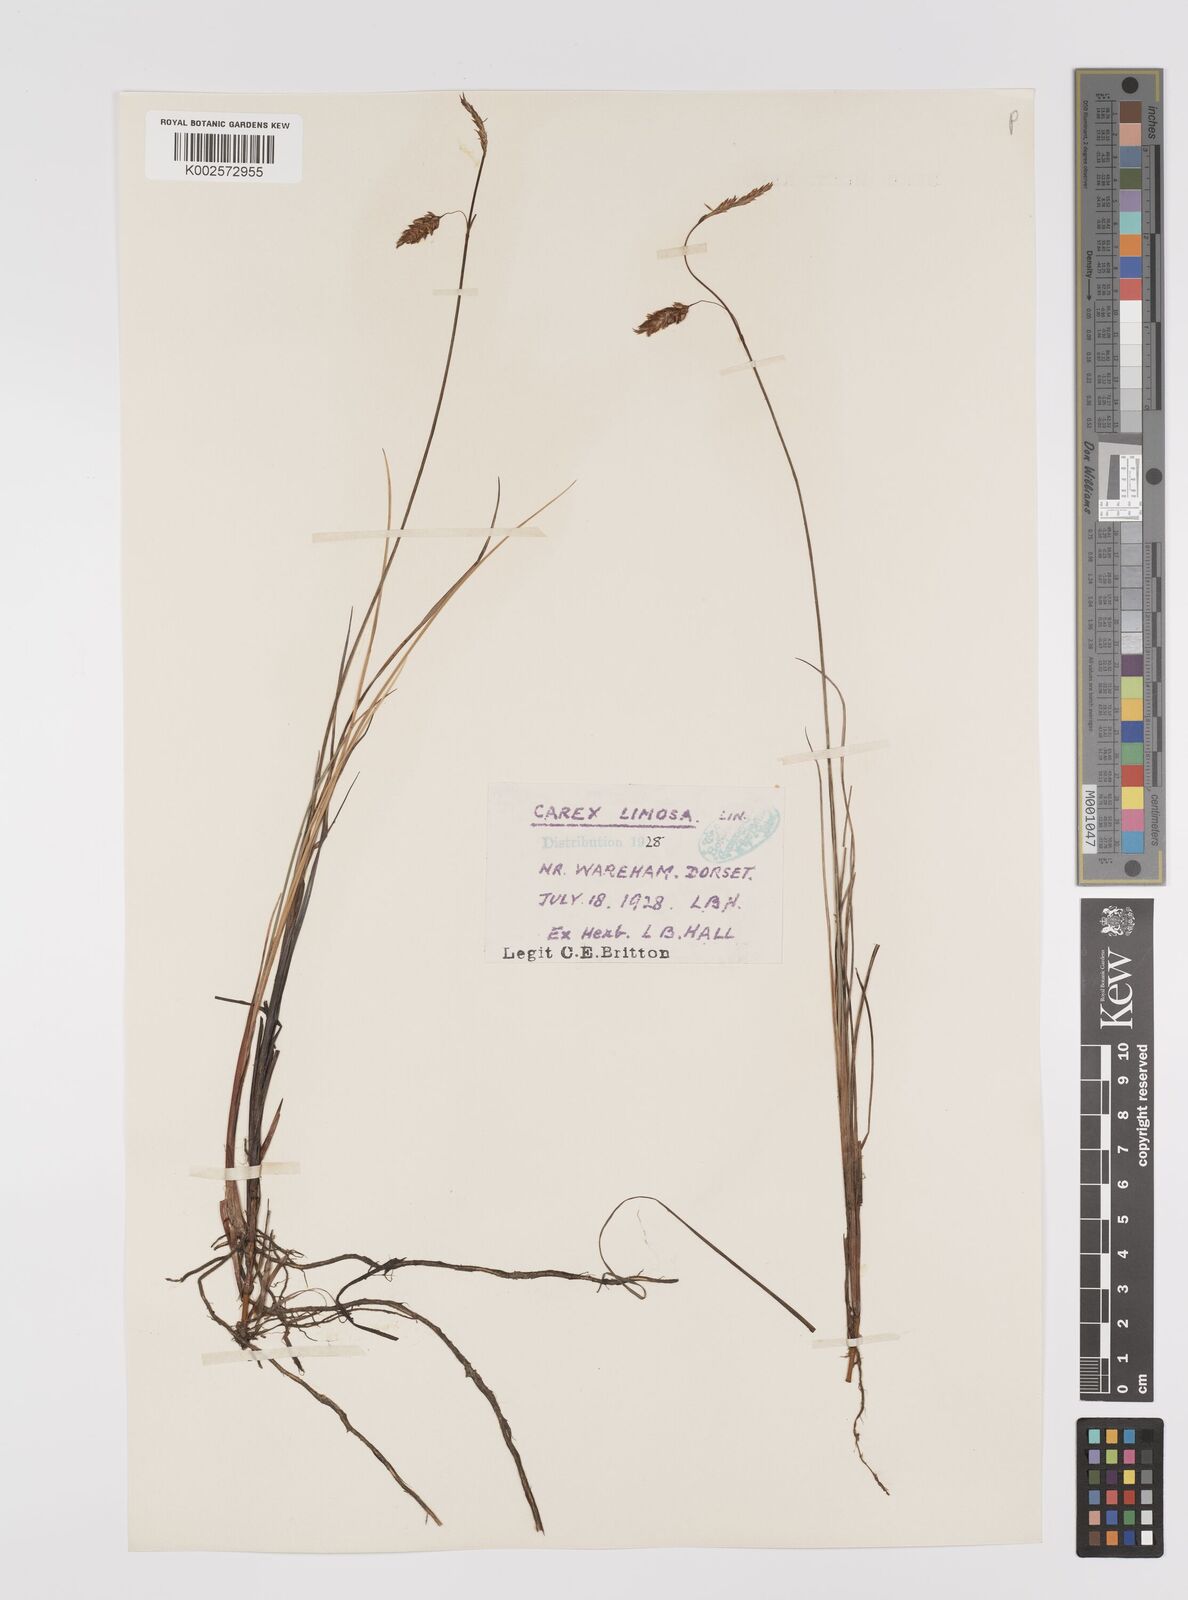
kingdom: Plantae
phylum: Tracheophyta
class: Liliopsida
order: Poales
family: Cyperaceae
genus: Carex
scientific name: Carex limosa
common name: Bog sedge
